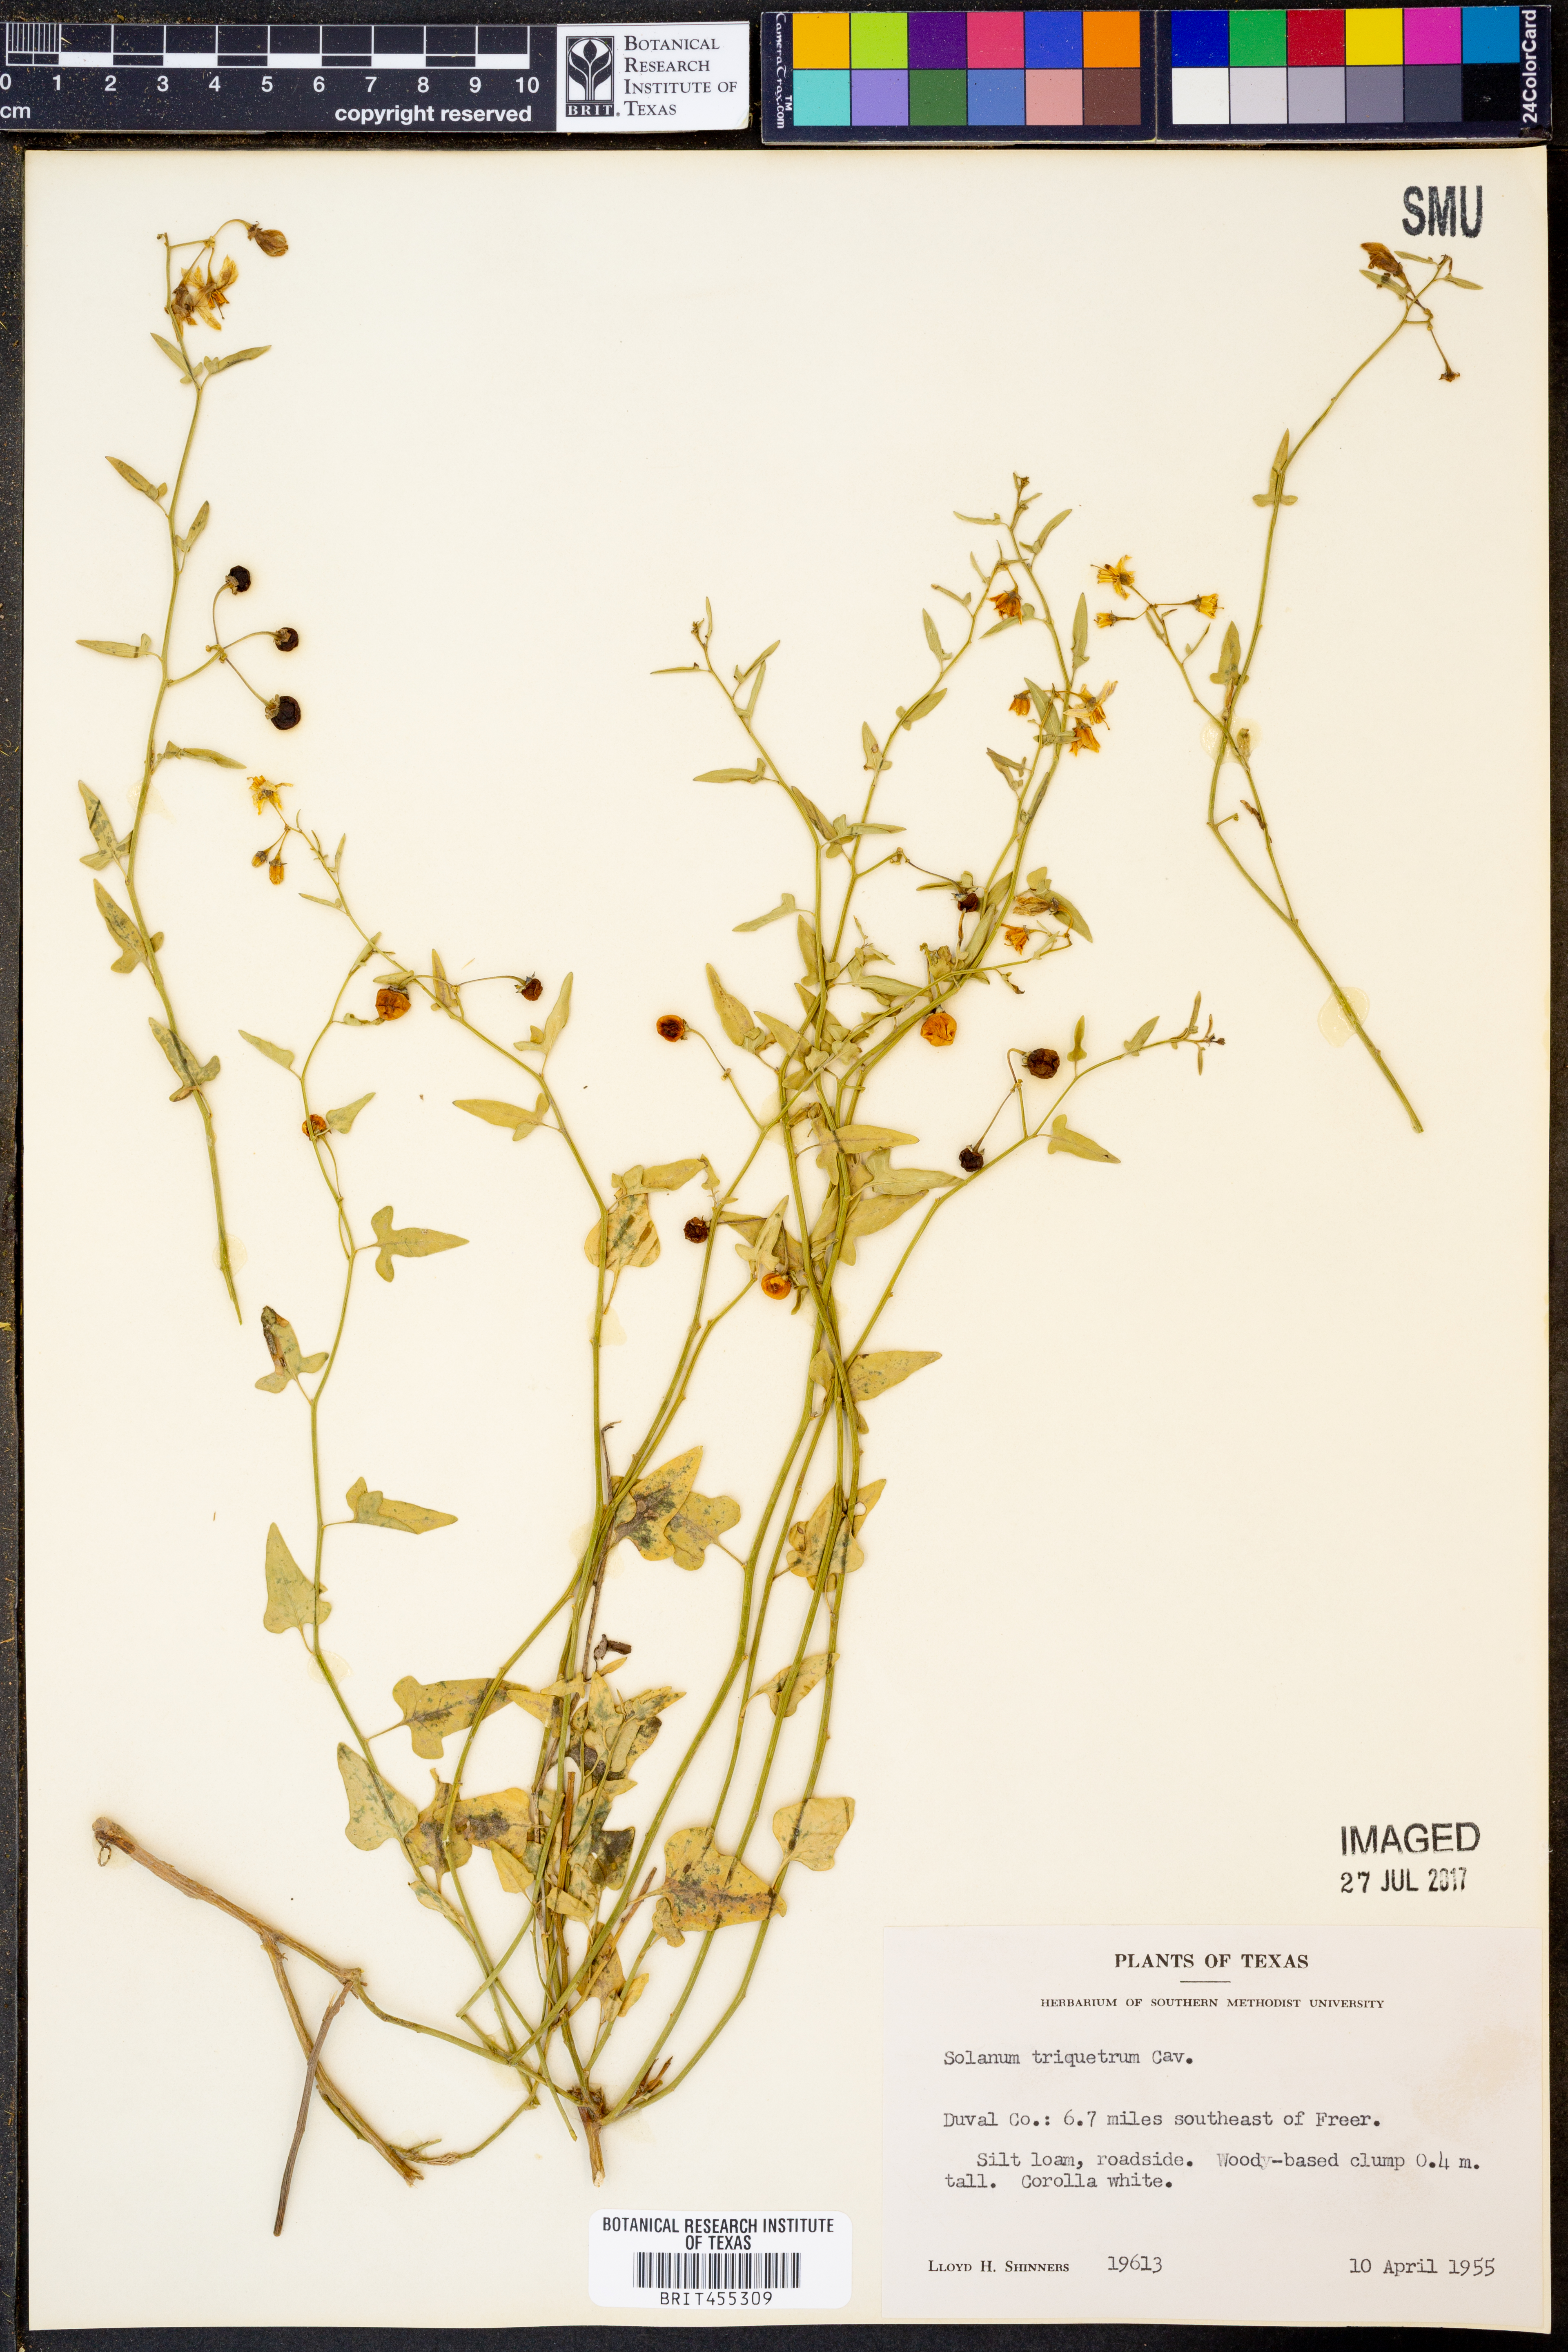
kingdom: Plantae
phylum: Tracheophyta
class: Magnoliopsida
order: Solanales
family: Solanaceae
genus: Solanum
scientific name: Solanum triquetrum
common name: Texas nightshade
